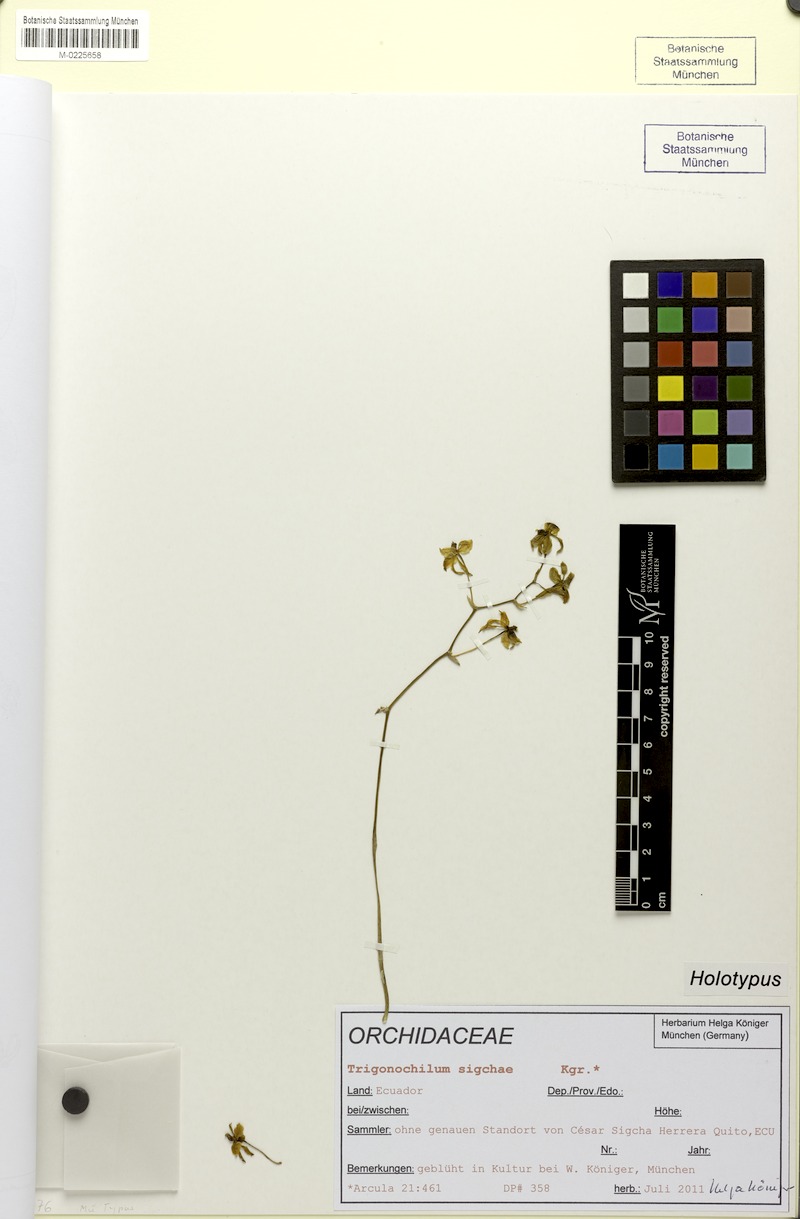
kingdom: Plantae
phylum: Tracheophyta
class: Liliopsida
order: Asparagales
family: Orchidaceae
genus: Cyrtochilum
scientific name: Cyrtochilum sigchae
